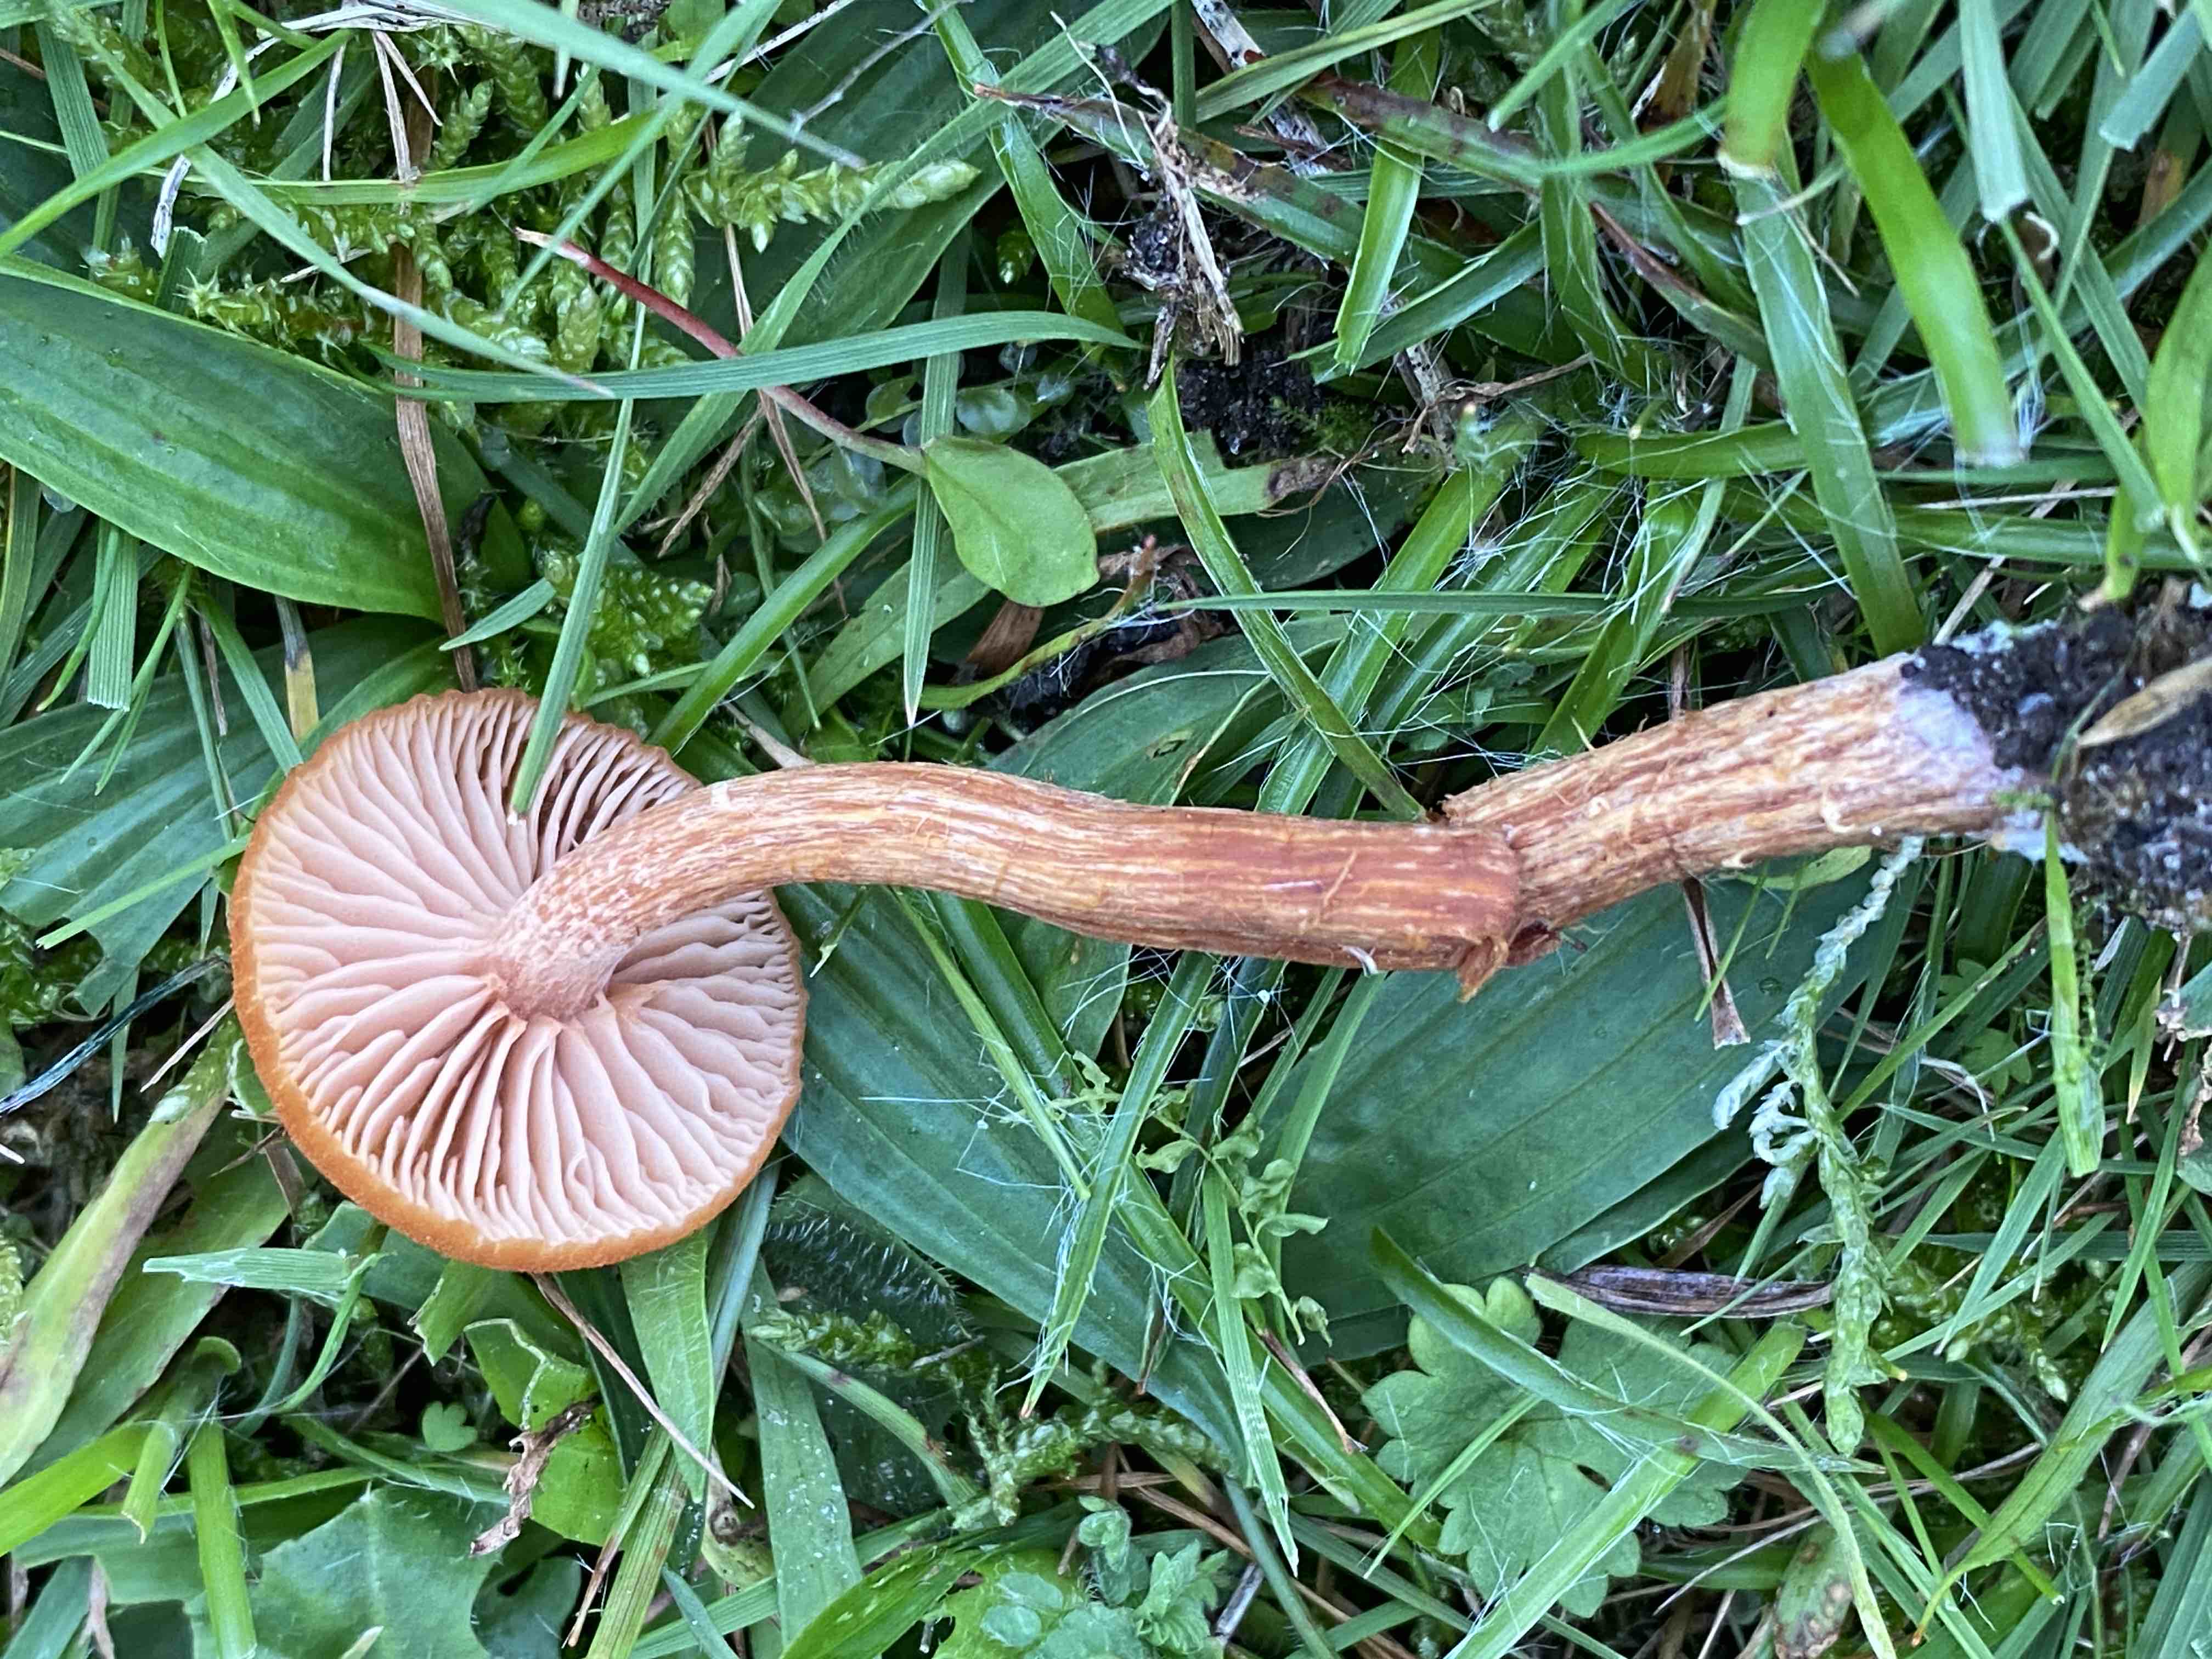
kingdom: Fungi
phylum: Basidiomycota
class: Agaricomycetes
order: Agaricales
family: Hydnangiaceae
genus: Laccaria
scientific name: Laccaria proxima
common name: stor ametysthat
